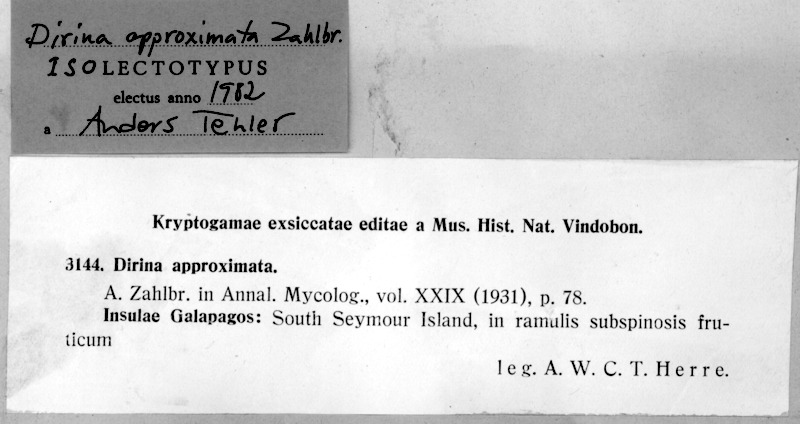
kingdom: Fungi
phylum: Ascomycota
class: Arthoniomycetes
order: Arthoniales
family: Roccellaceae
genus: Dirina
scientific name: Dirina approximata
